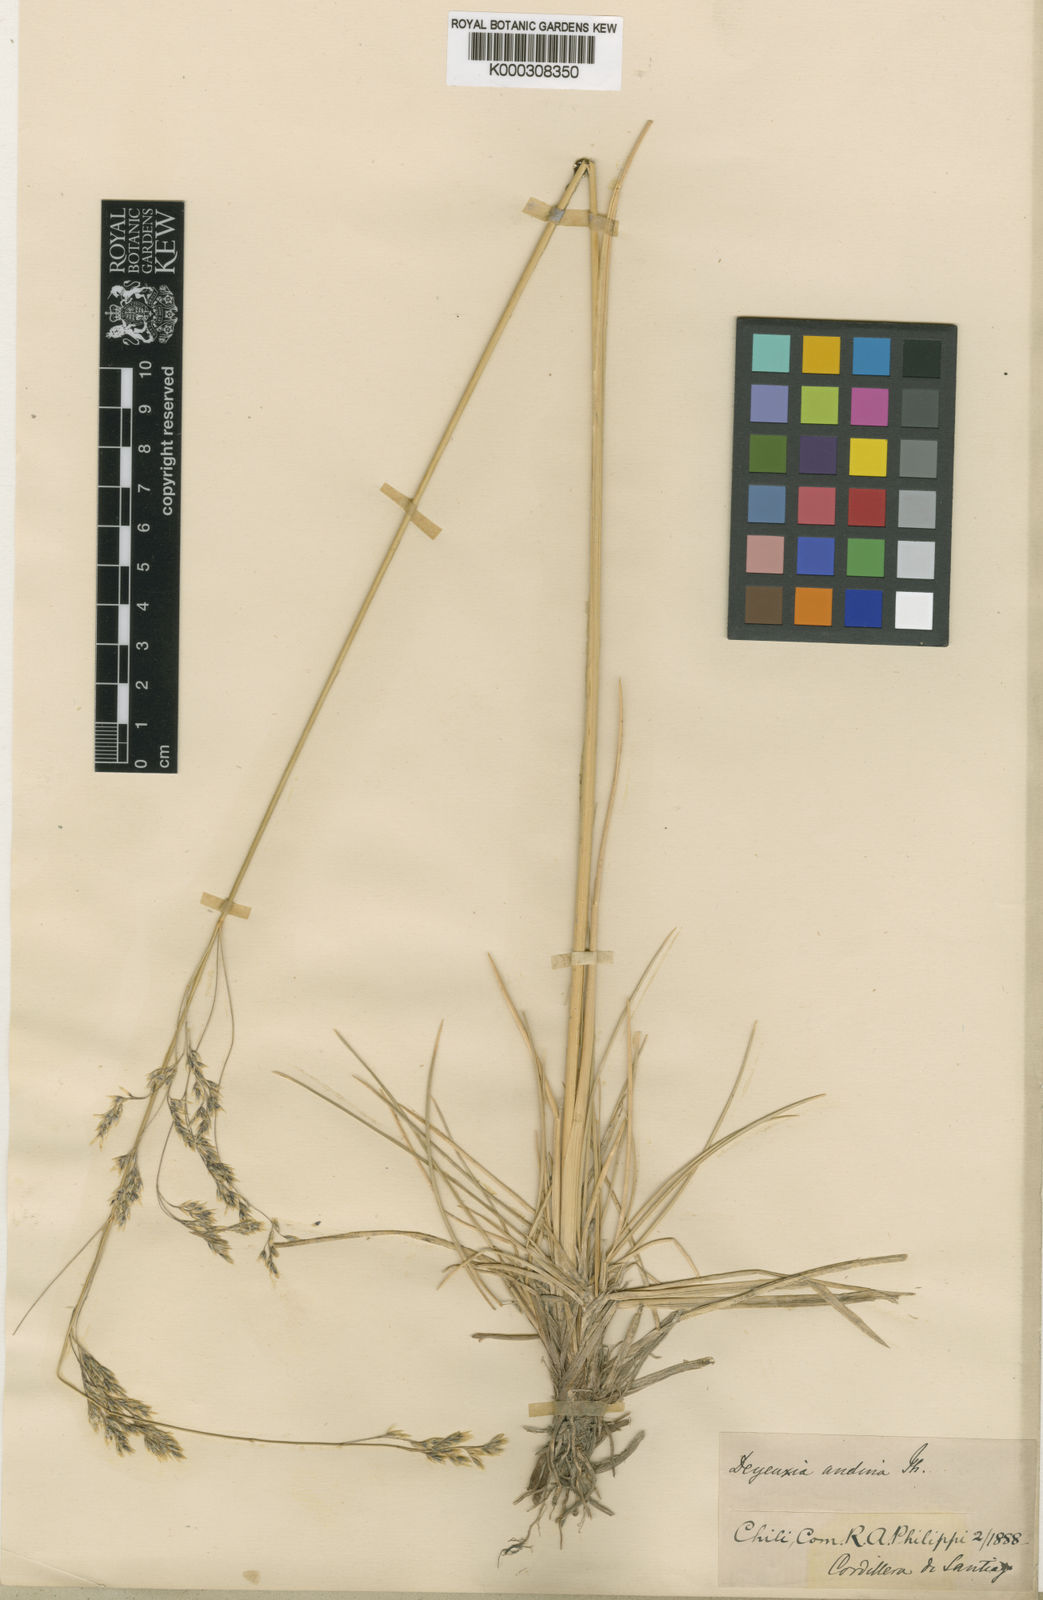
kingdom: Plantae
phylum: Tracheophyta
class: Liliopsida
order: Poales
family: Poaceae
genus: Deschampsia
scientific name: Deschampsia cespitosa
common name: Tufted hair-grass
